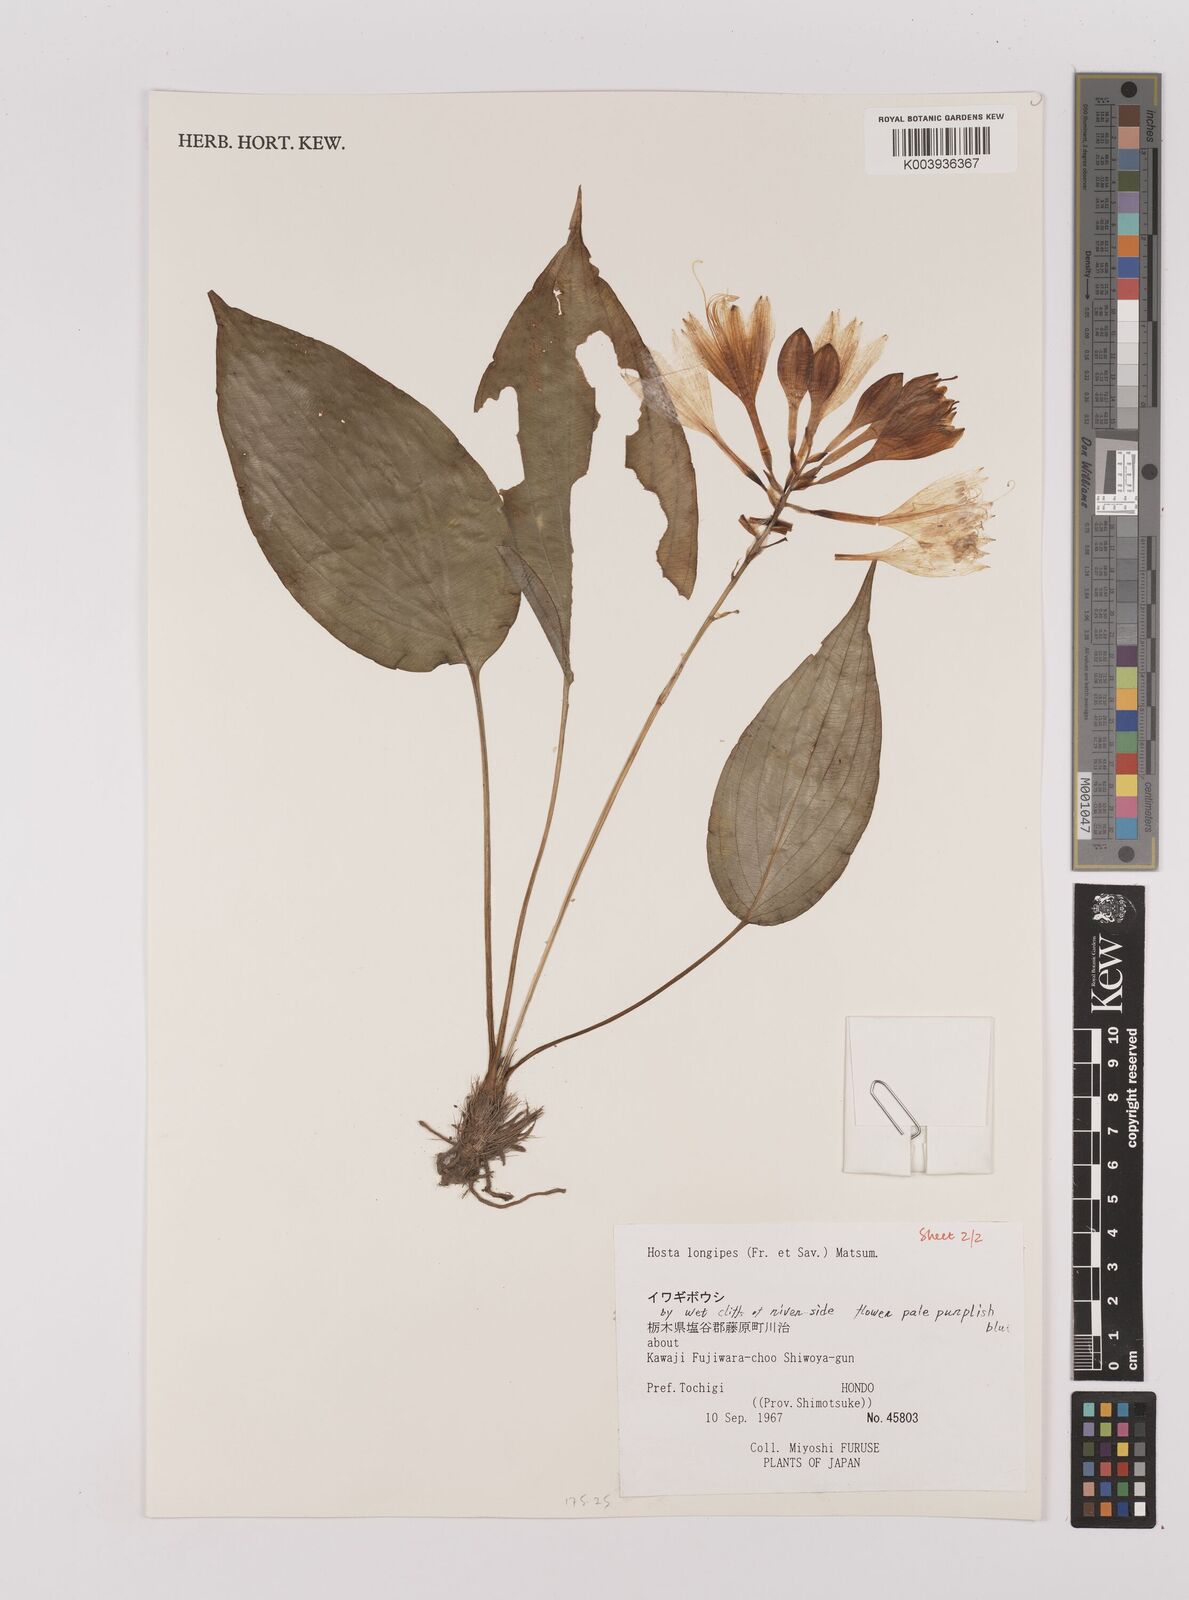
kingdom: Plantae
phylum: Tracheophyta
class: Liliopsida
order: Asparagales
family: Asparagaceae
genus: Hosta
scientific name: Hosta
